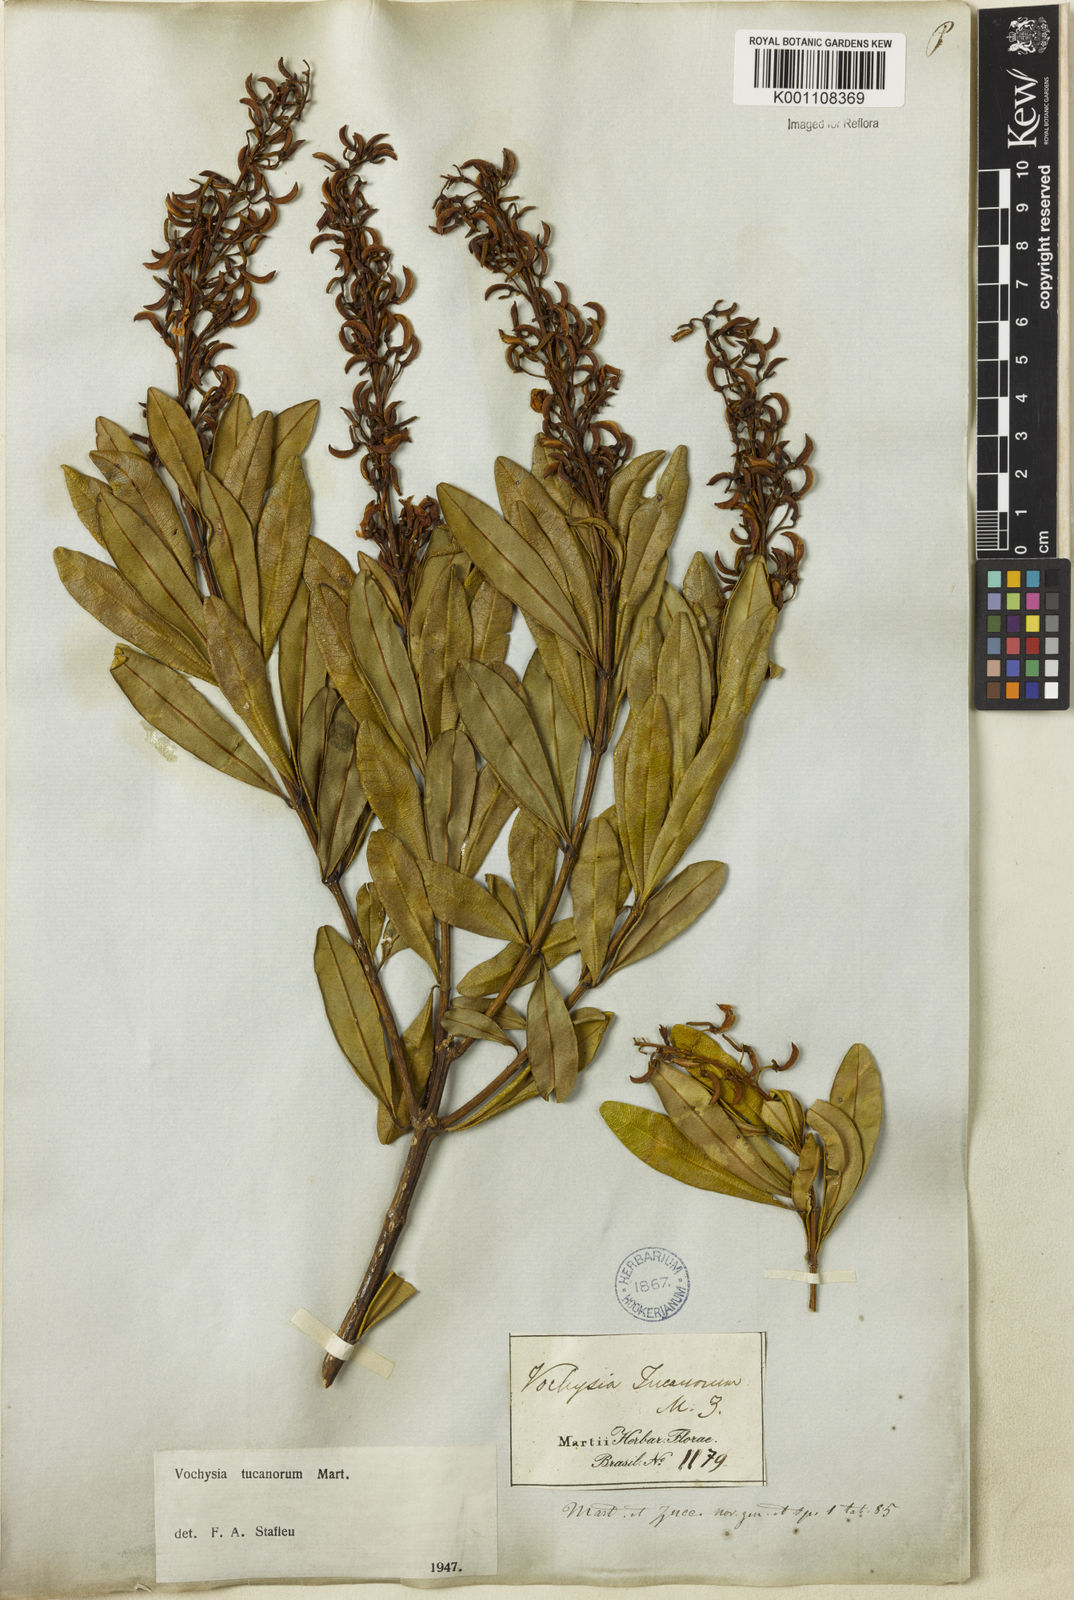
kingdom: Plantae
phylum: Tracheophyta
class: Magnoliopsida
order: Myrtales
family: Vochysiaceae
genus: Vochysia
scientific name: Vochysia tucanorum
